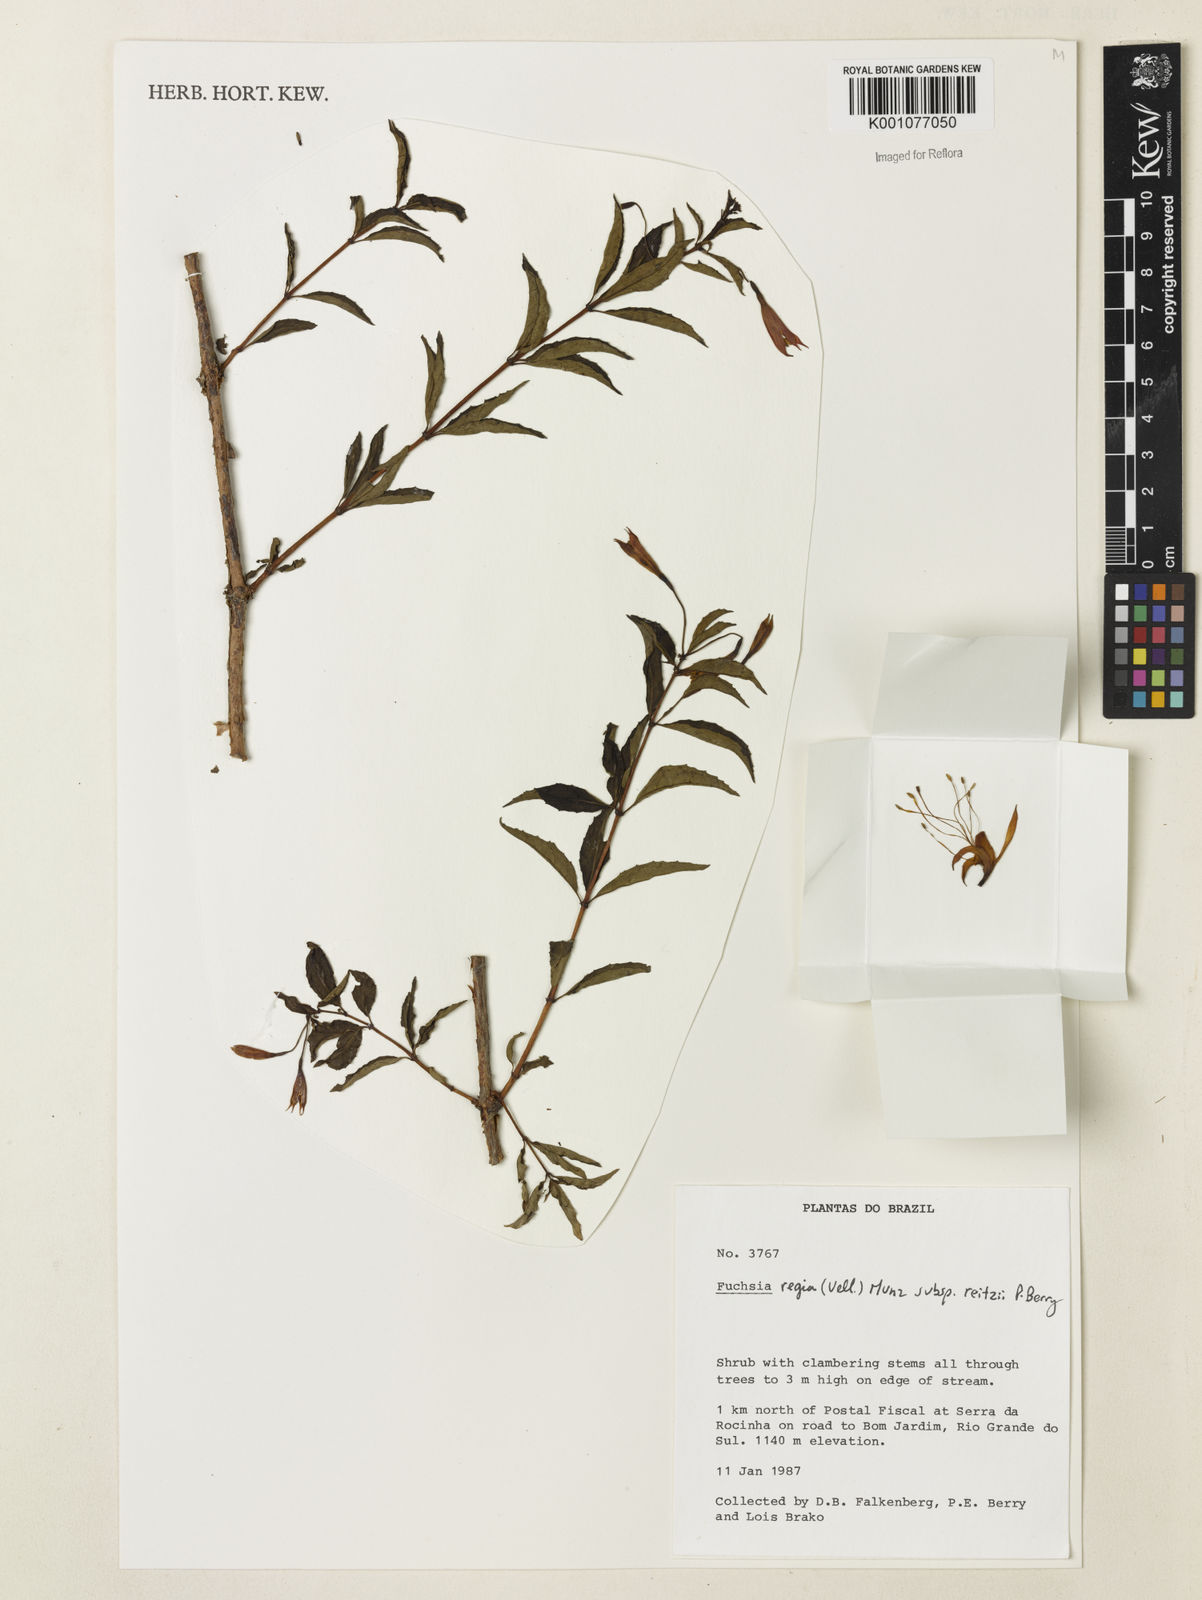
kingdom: Plantae
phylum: Tracheophyta
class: Magnoliopsida
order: Myrtales
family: Onagraceae
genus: Fuchsia
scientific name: Fuchsia regia
